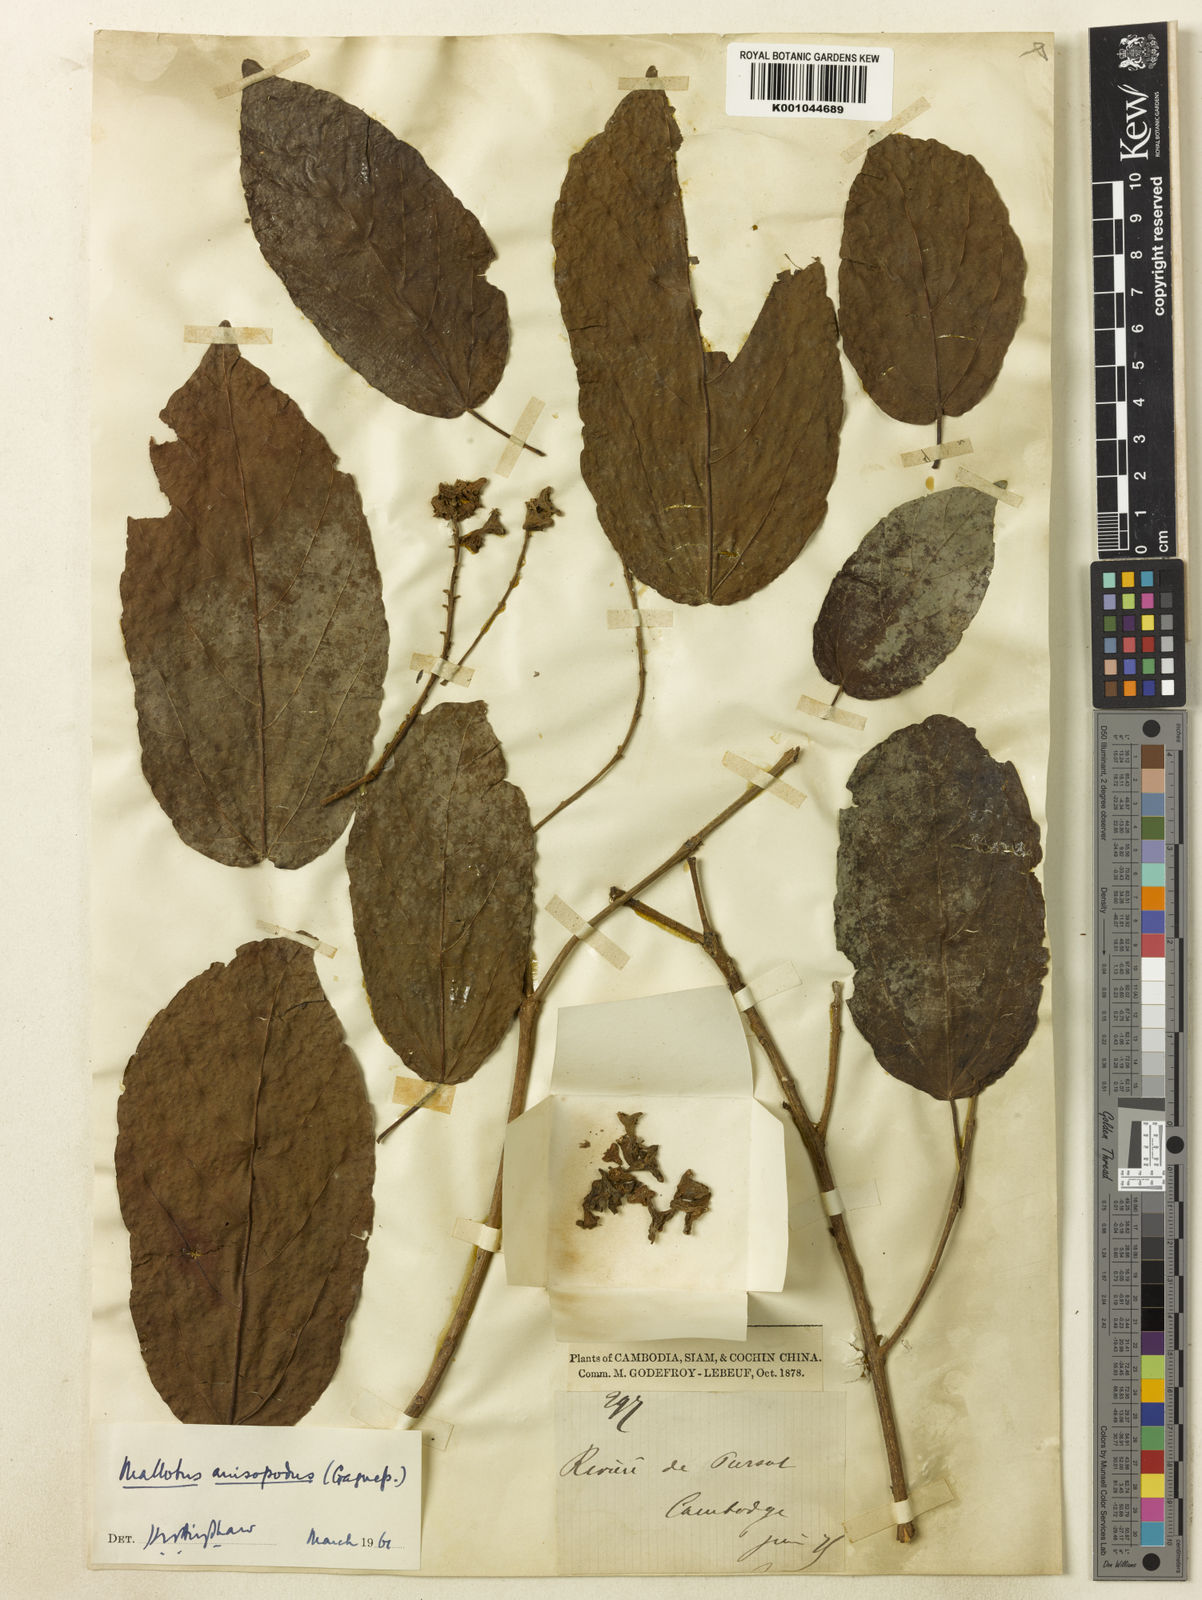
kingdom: Plantae
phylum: Tracheophyta
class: Magnoliopsida
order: Malpighiales
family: Euphorbiaceae
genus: Mallotus
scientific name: Mallotus plicatus
